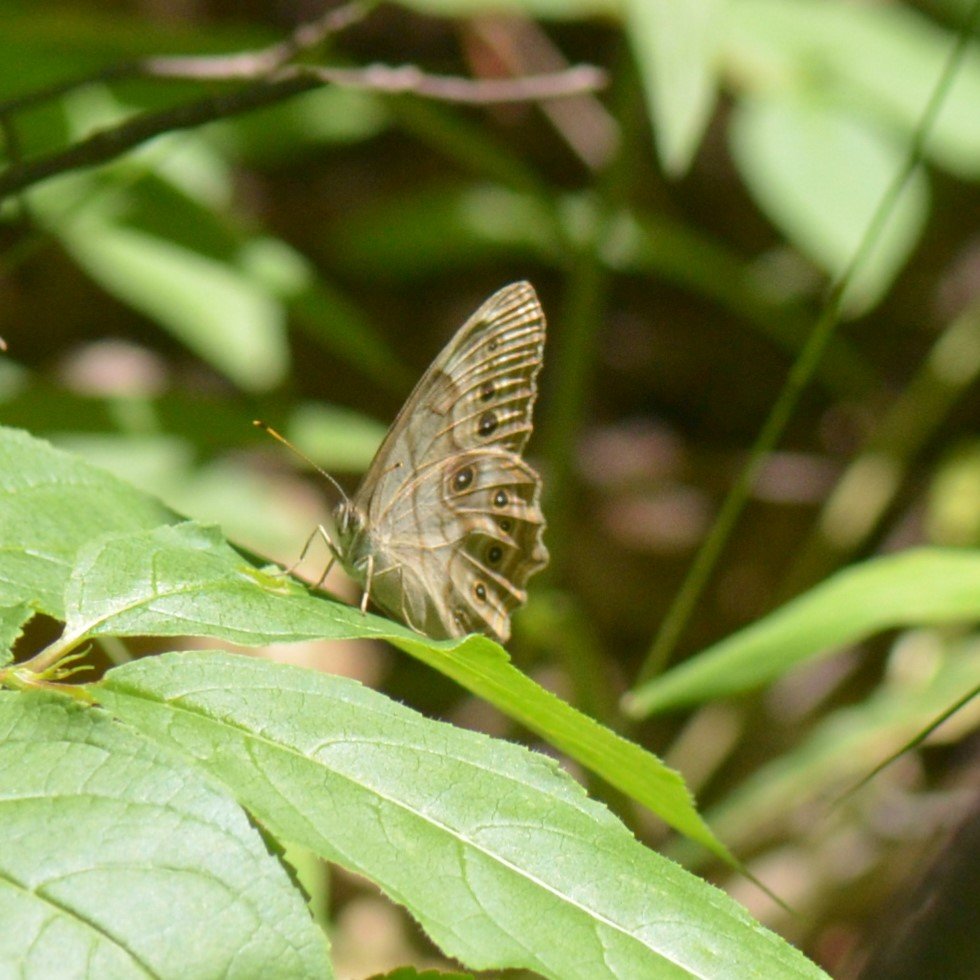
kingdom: Animalia
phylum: Arthropoda
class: Insecta
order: Lepidoptera
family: Nymphalidae
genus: Lethe
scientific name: Lethe anthedon
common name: Northern Pearly-Eye
